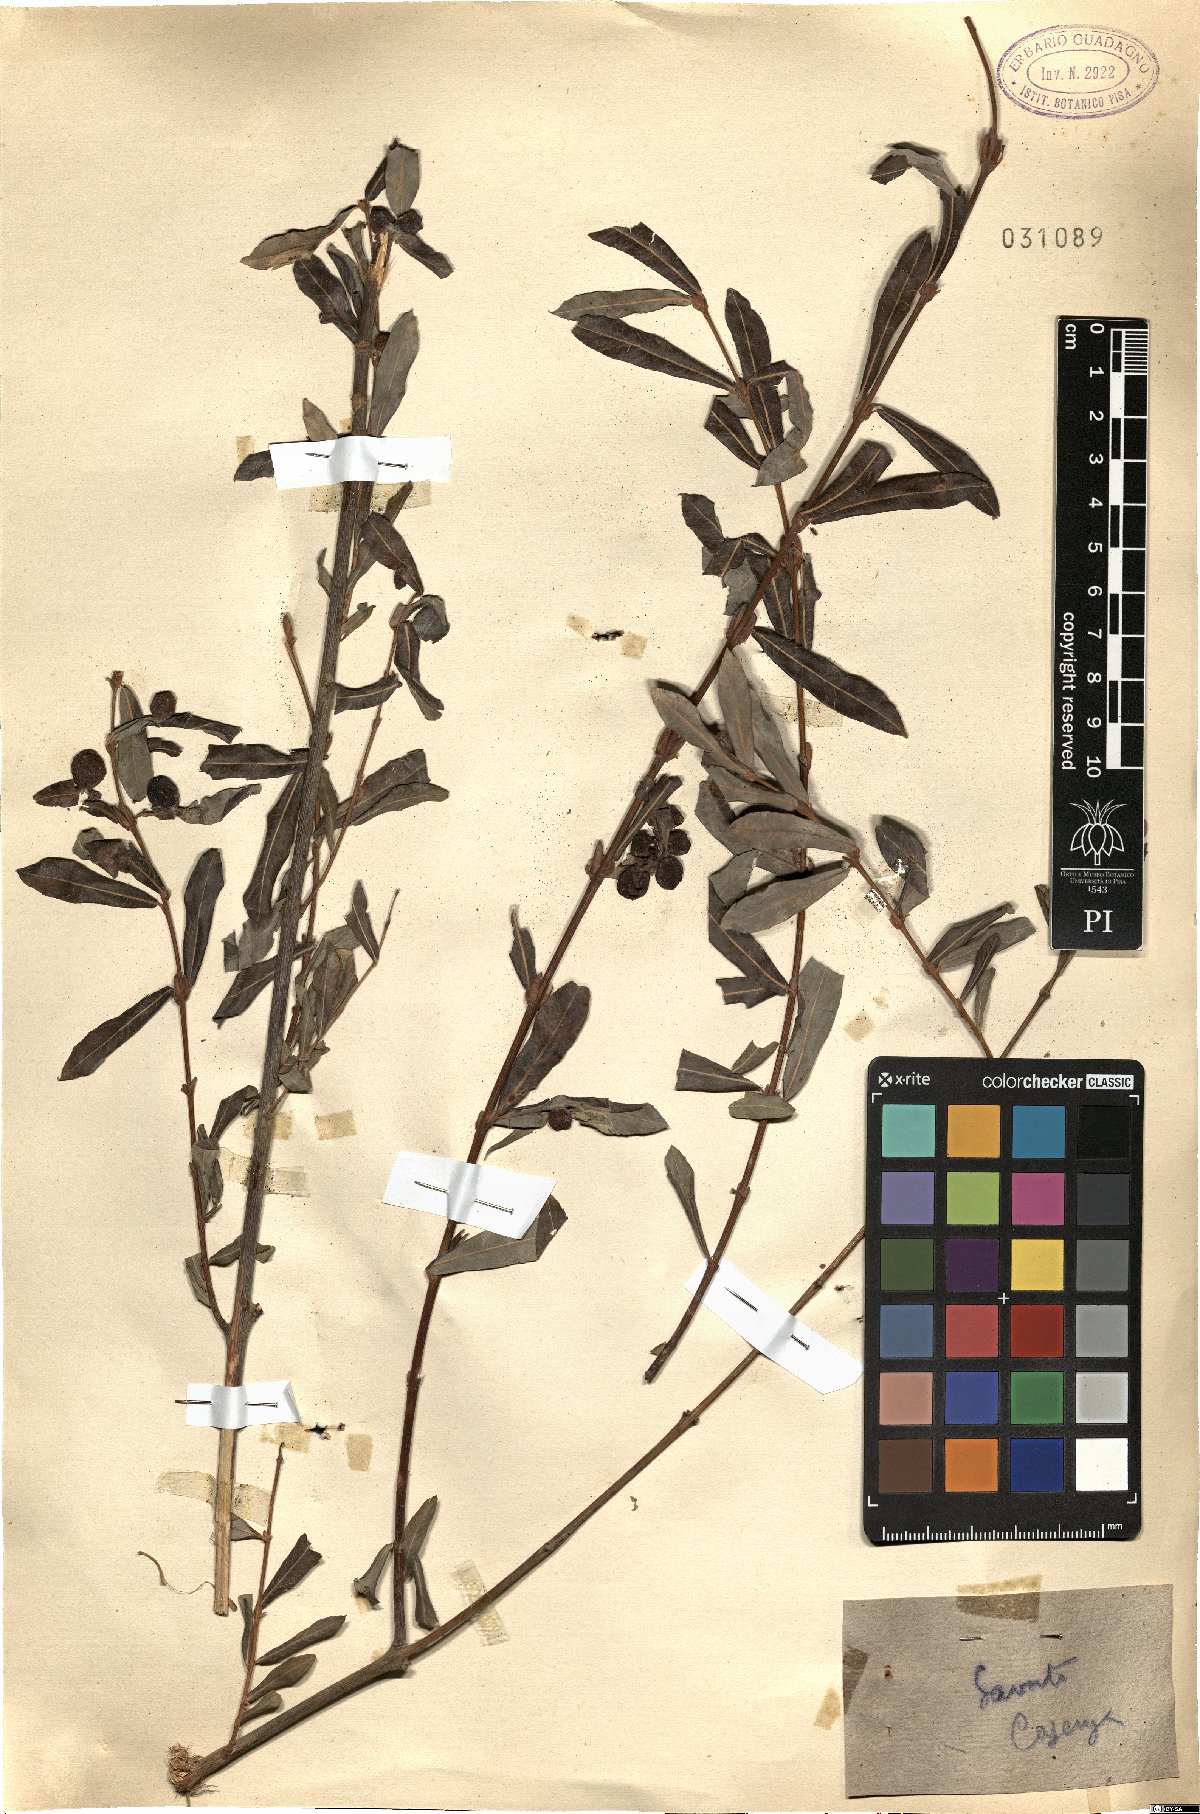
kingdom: Plantae
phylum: Tracheophyta
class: Magnoliopsida
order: Malpighiales
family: Salicaceae
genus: Salix
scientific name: Salix
